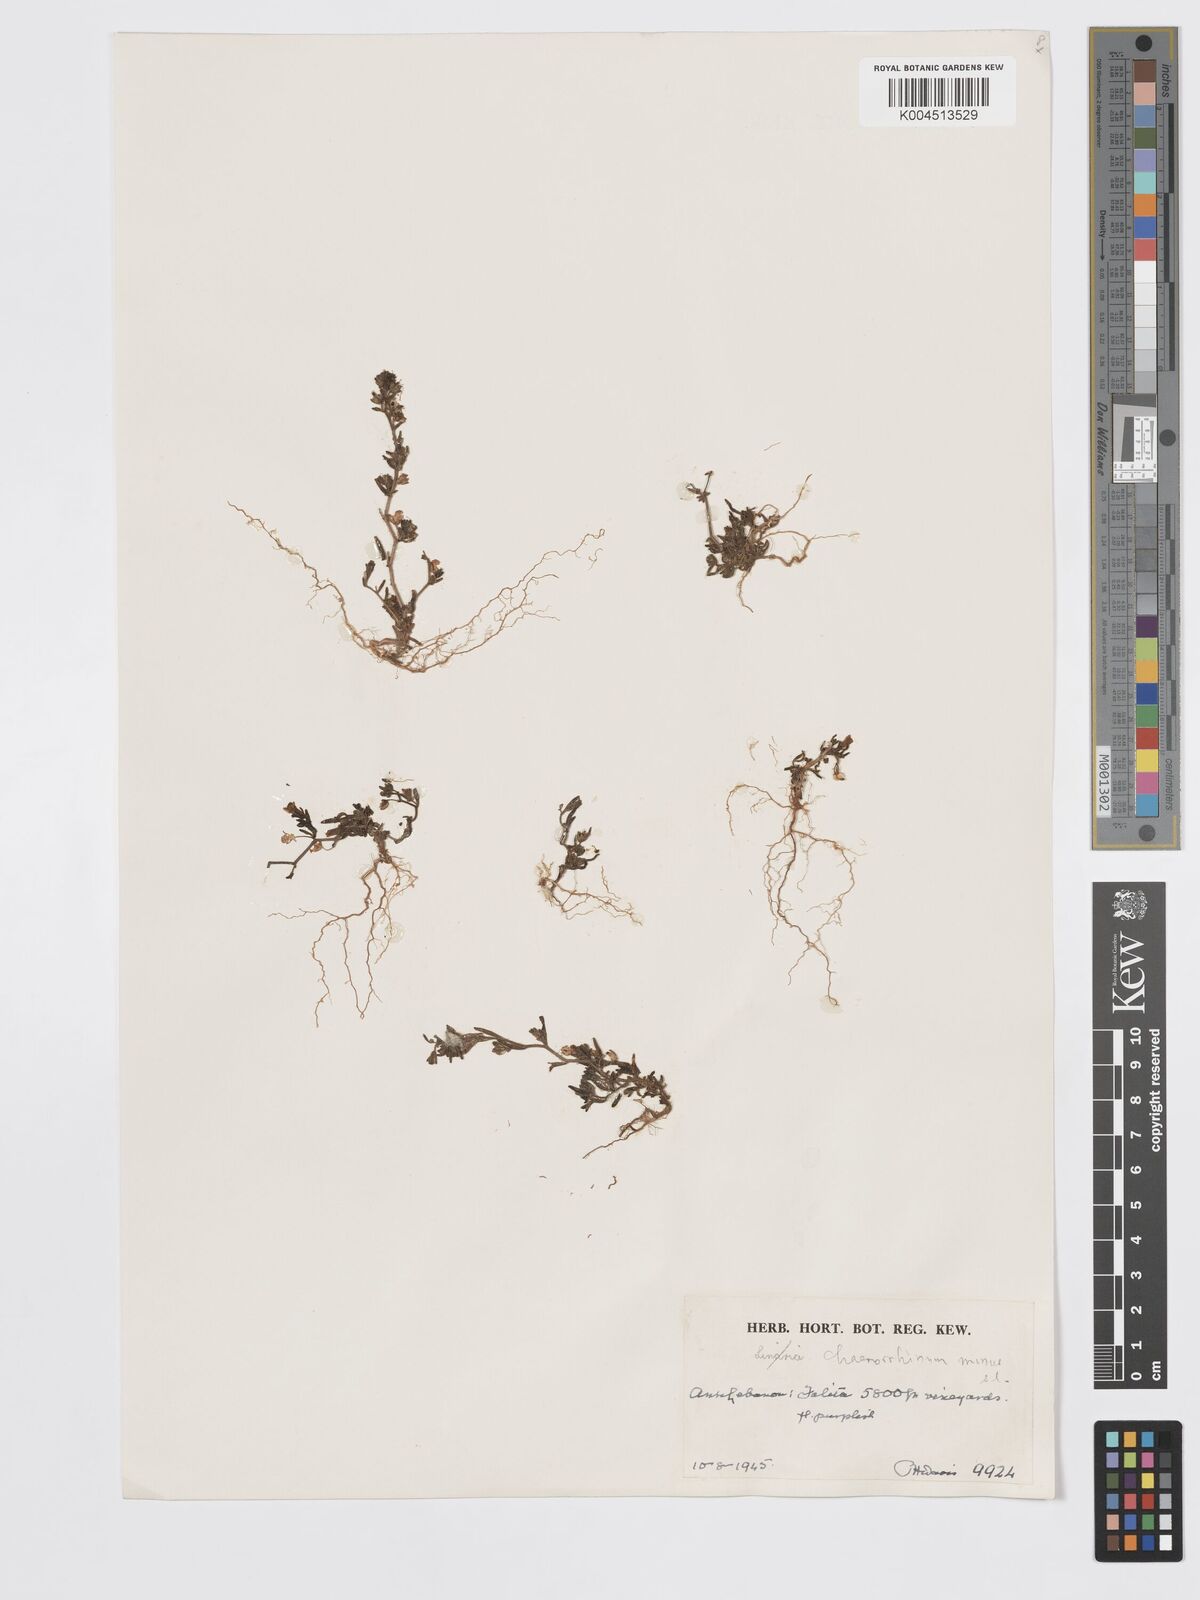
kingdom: Plantae
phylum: Tracheophyta
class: Magnoliopsida
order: Lamiales
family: Plantaginaceae
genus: Chaenorhinum
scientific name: Chaenorhinum minus
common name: Dwarf snapdragon
